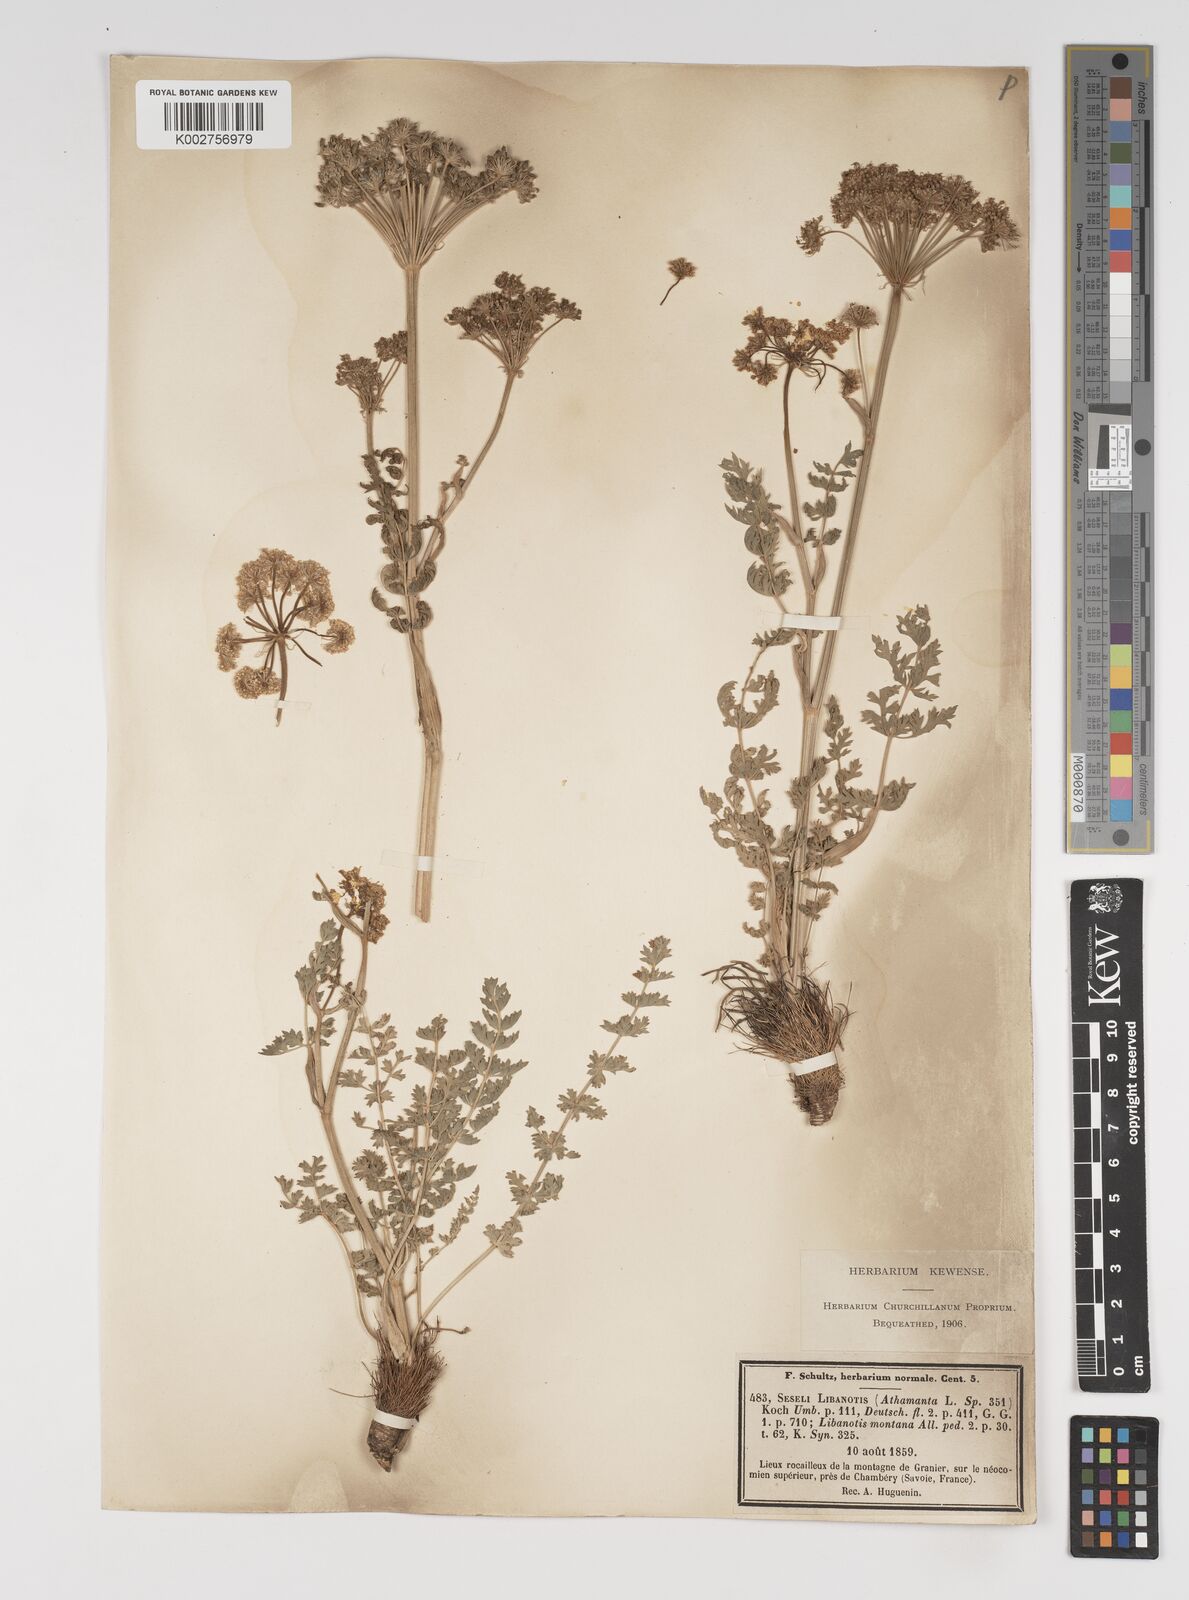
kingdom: Plantae
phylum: Tracheophyta
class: Magnoliopsida
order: Apiales
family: Apiaceae
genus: Seseli
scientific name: Seseli libanotis
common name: Mooncarrot
